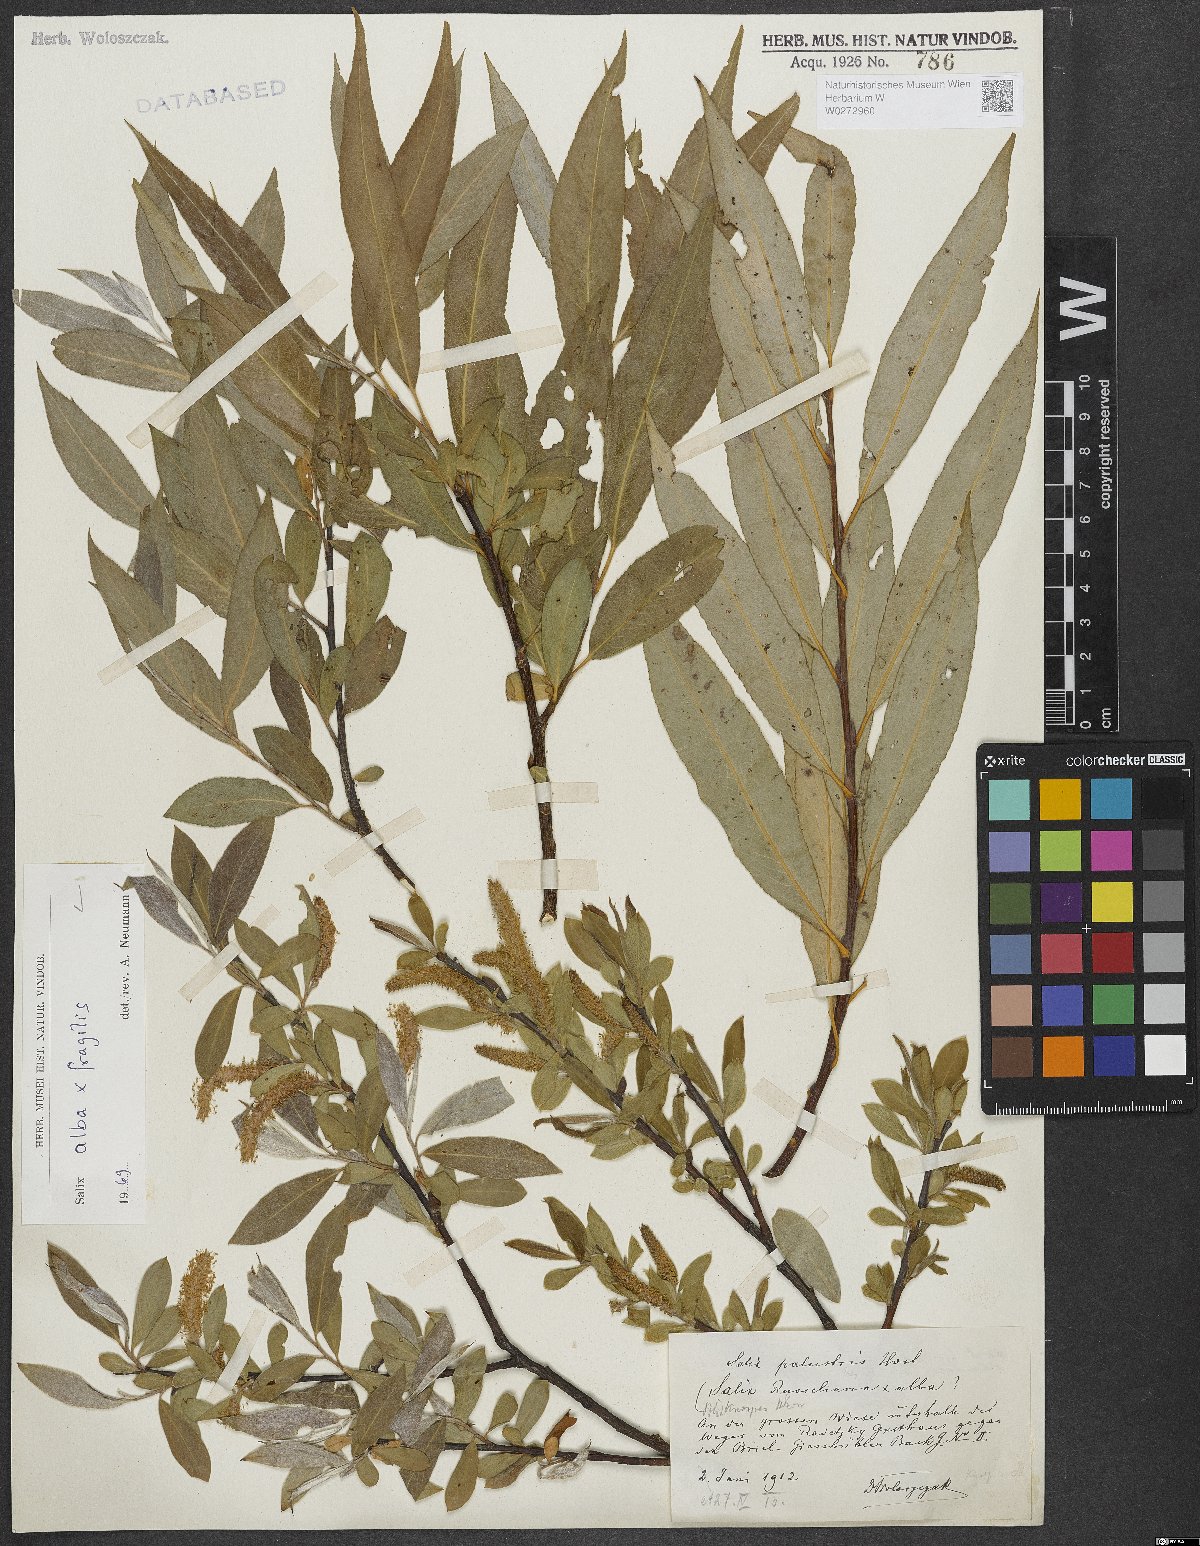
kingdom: Plantae
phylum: Tracheophyta
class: Magnoliopsida
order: Malpighiales
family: Salicaceae
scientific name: Salicaceae
